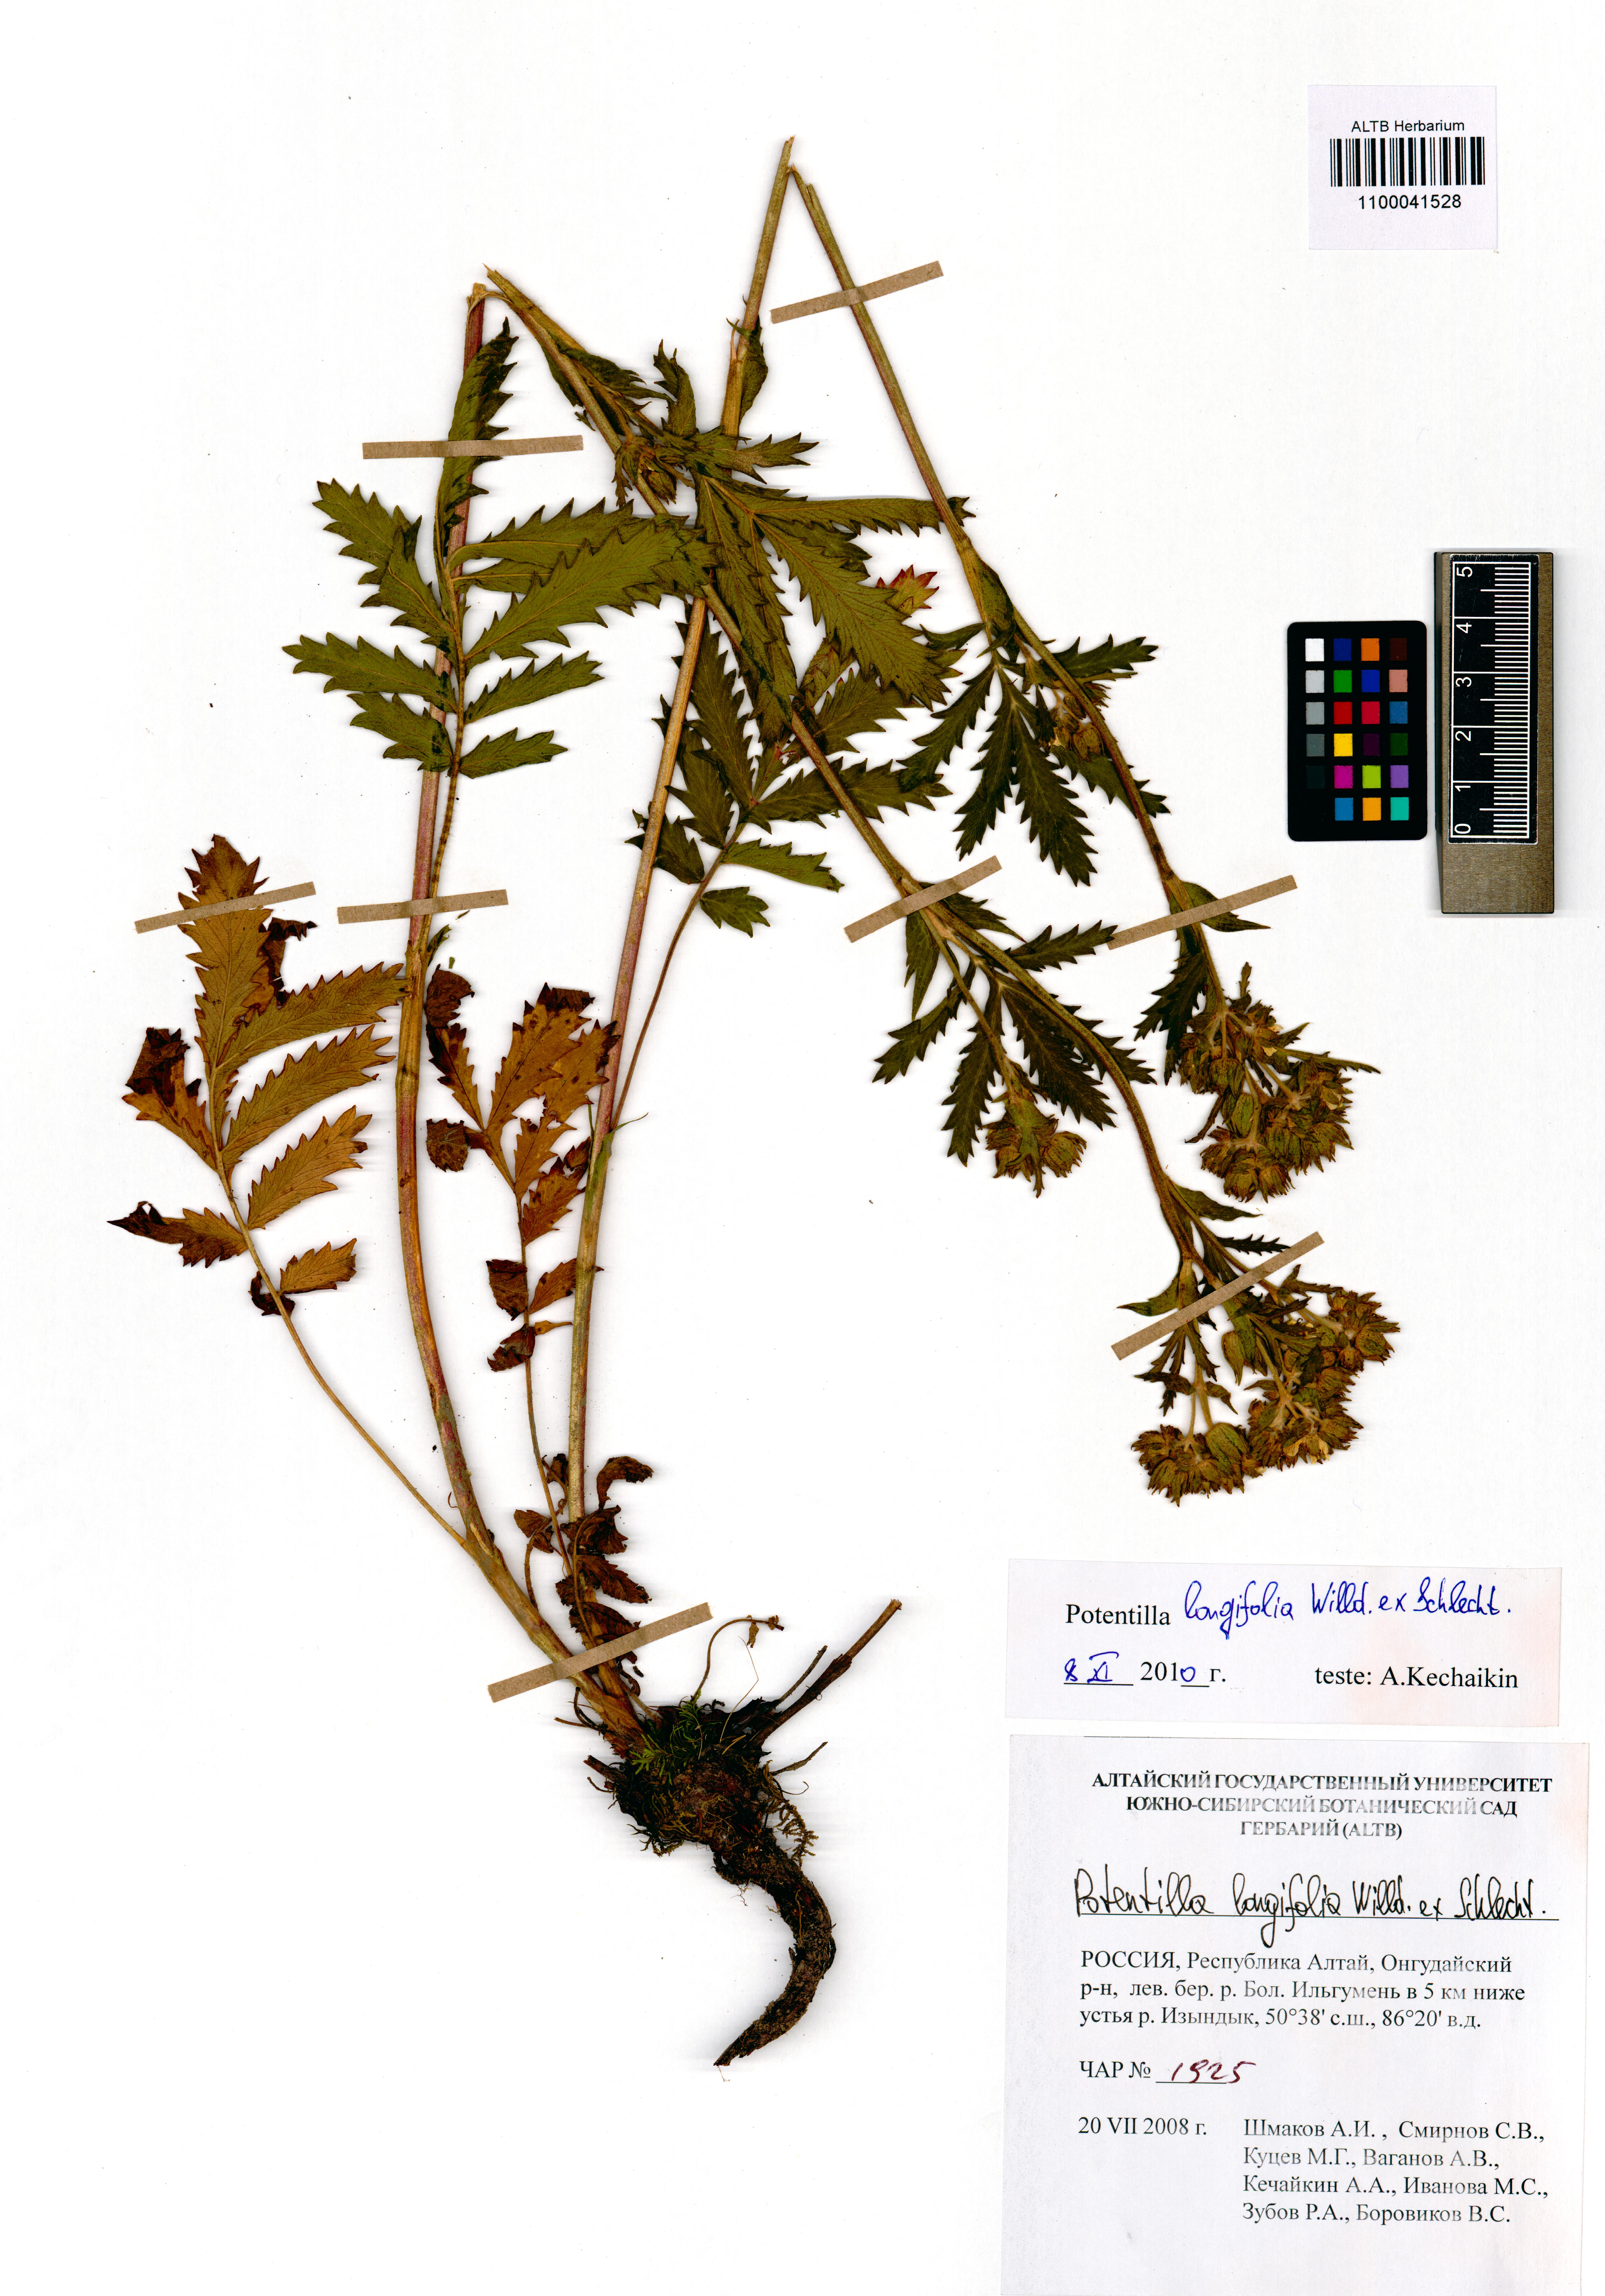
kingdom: Plantae
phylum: Tracheophyta
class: Magnoliopsida
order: Rosales
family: Rosaceae
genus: Potentilla
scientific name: Potentilla longifolia
